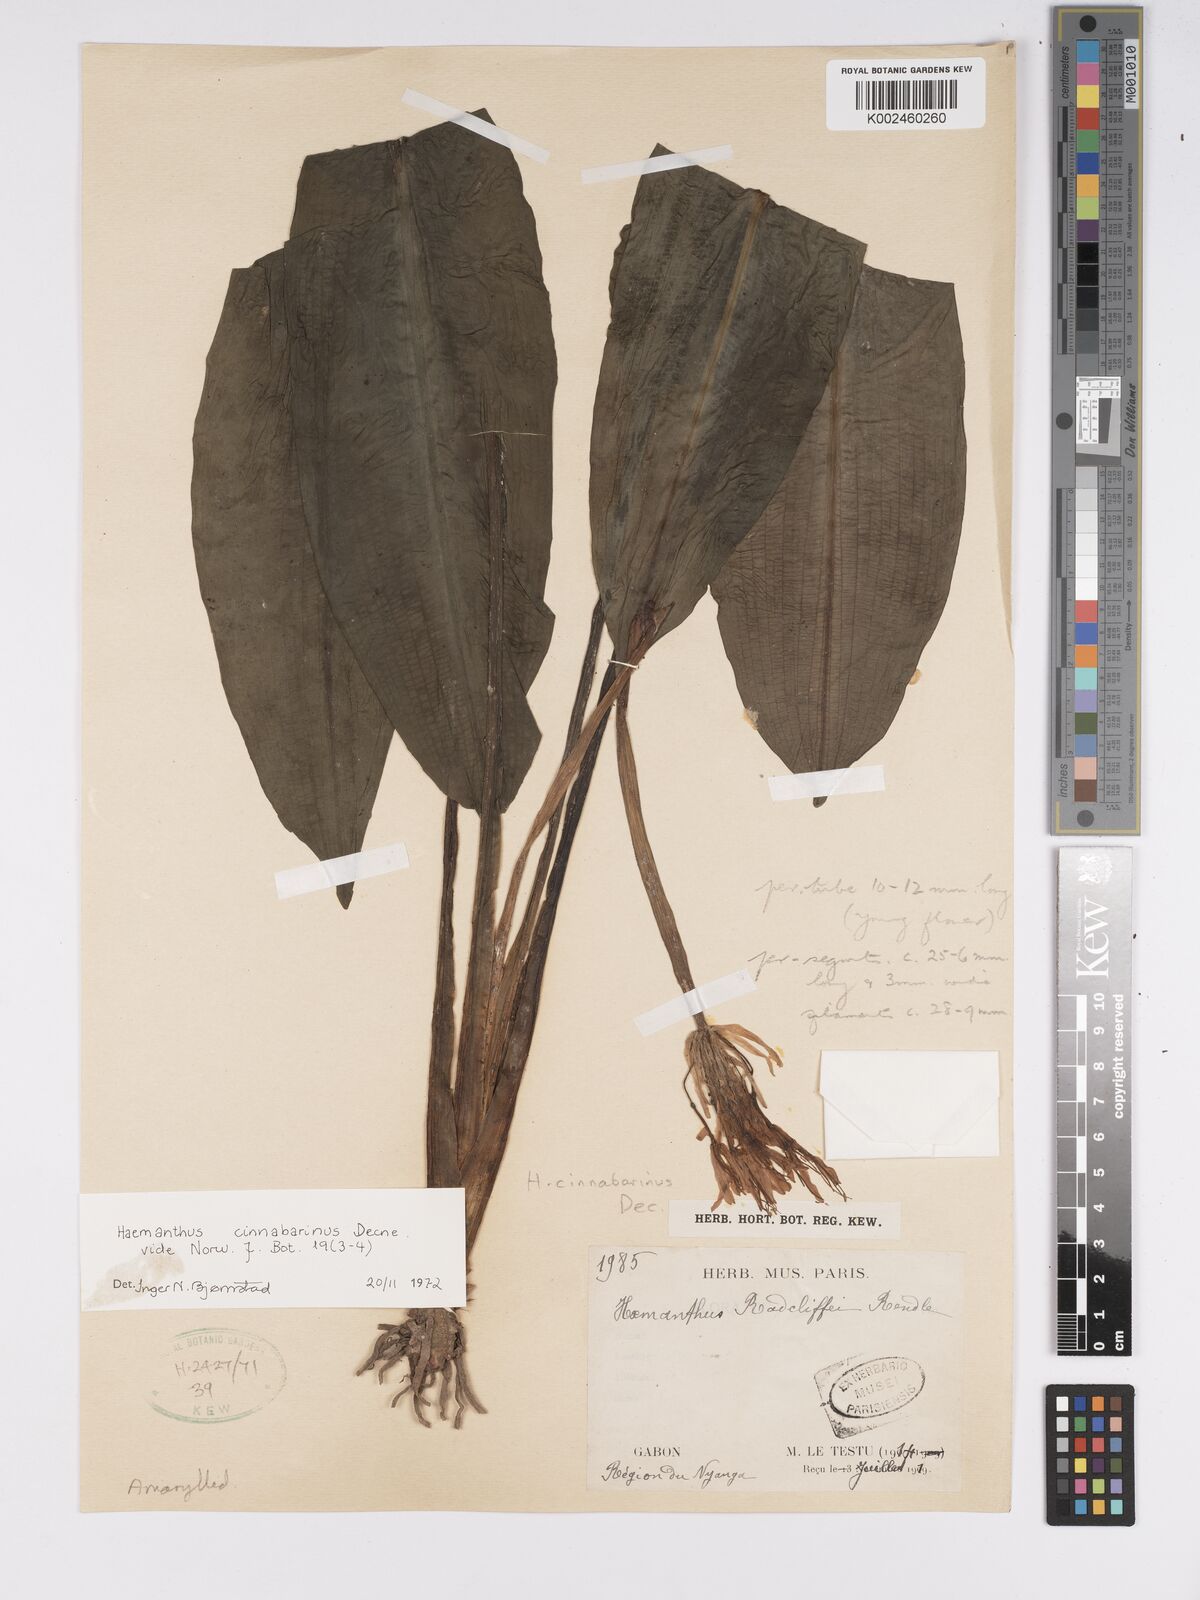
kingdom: Plantae
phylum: Tracheophyta
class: Liliopsida
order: Asparagales
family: Amaryllidaceae
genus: Scadoxus
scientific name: Scadoxus cinnabarinus
